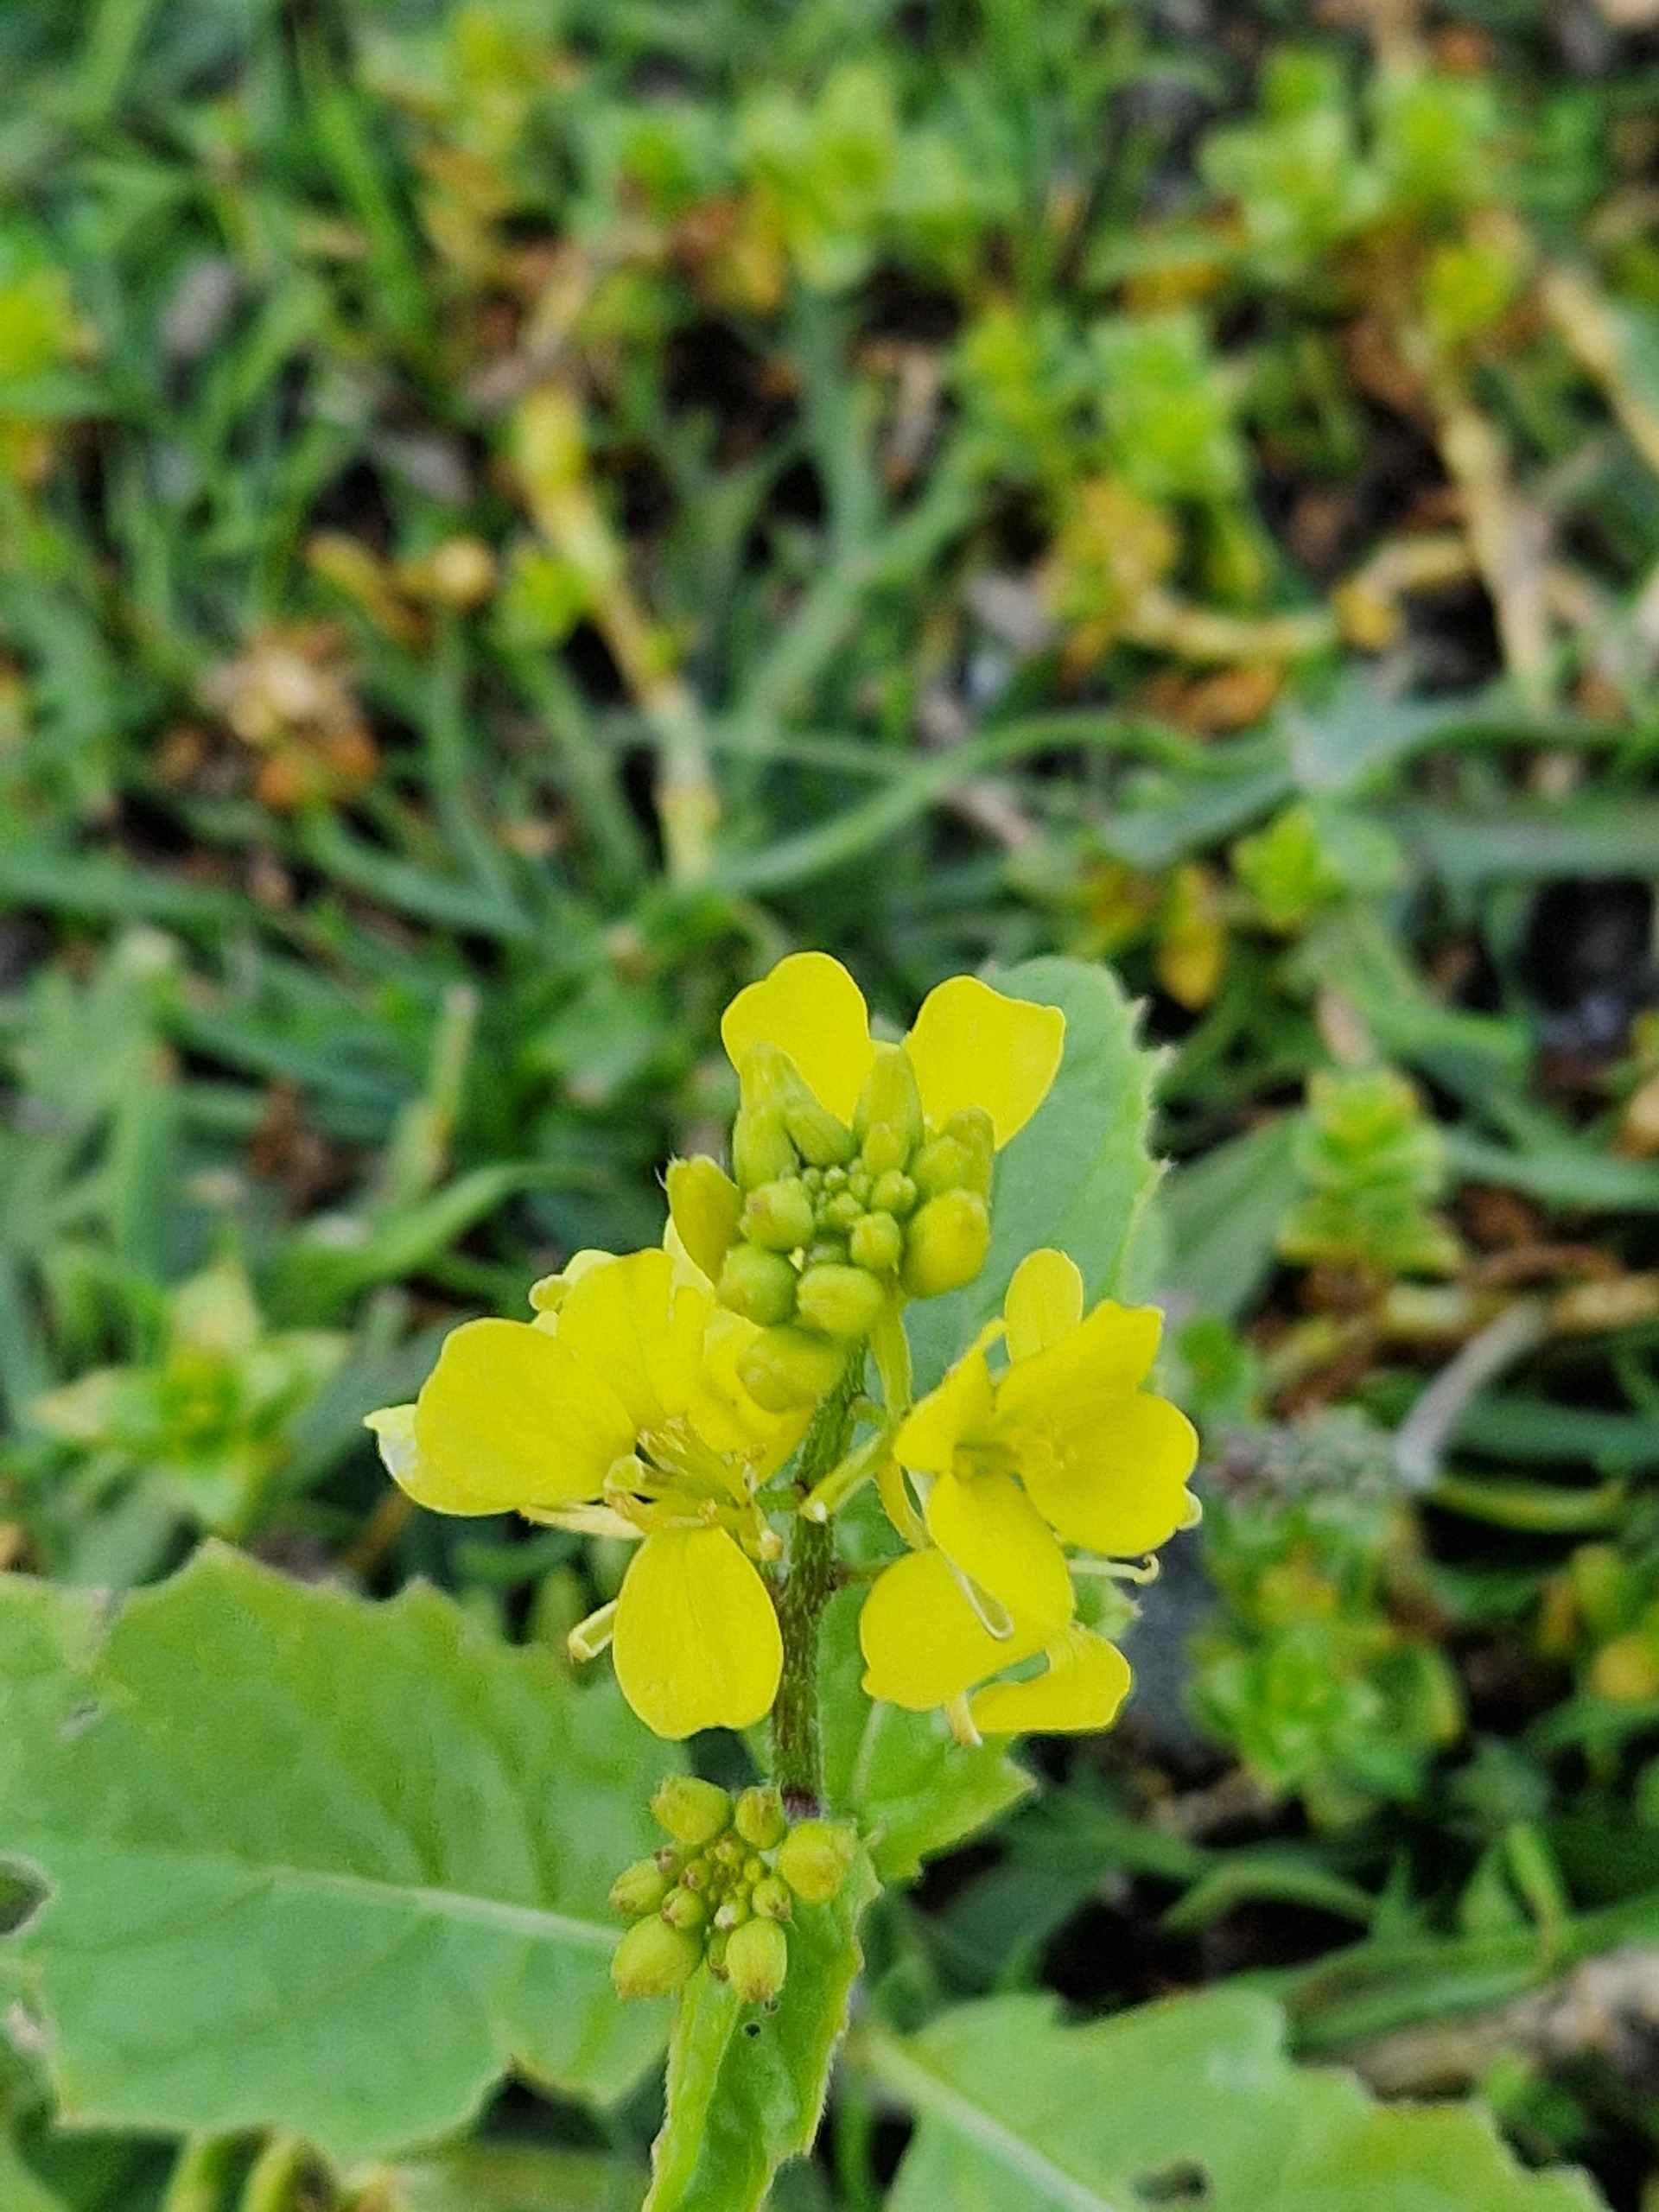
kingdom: Plantae
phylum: Tracheophyta
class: Magnoliopsida
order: Brassicales
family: Brassicaceae
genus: Sinapis
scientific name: Sinapis arvensis
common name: Ager-sennep
